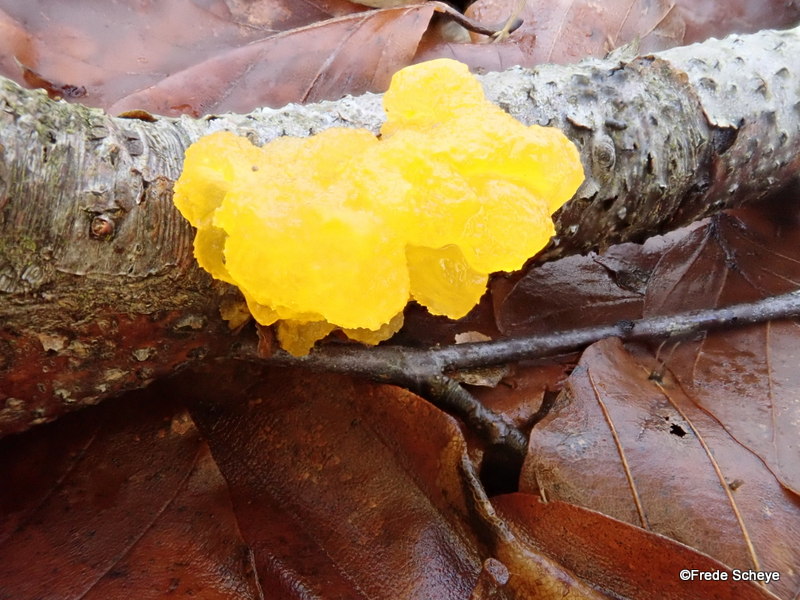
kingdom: Fungi
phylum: Basidiomycota
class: Tremellomycetes
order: Tremellales
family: Tremellaceae
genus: Tremella
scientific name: Tremella mesenterica
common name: gul bævresvamp
